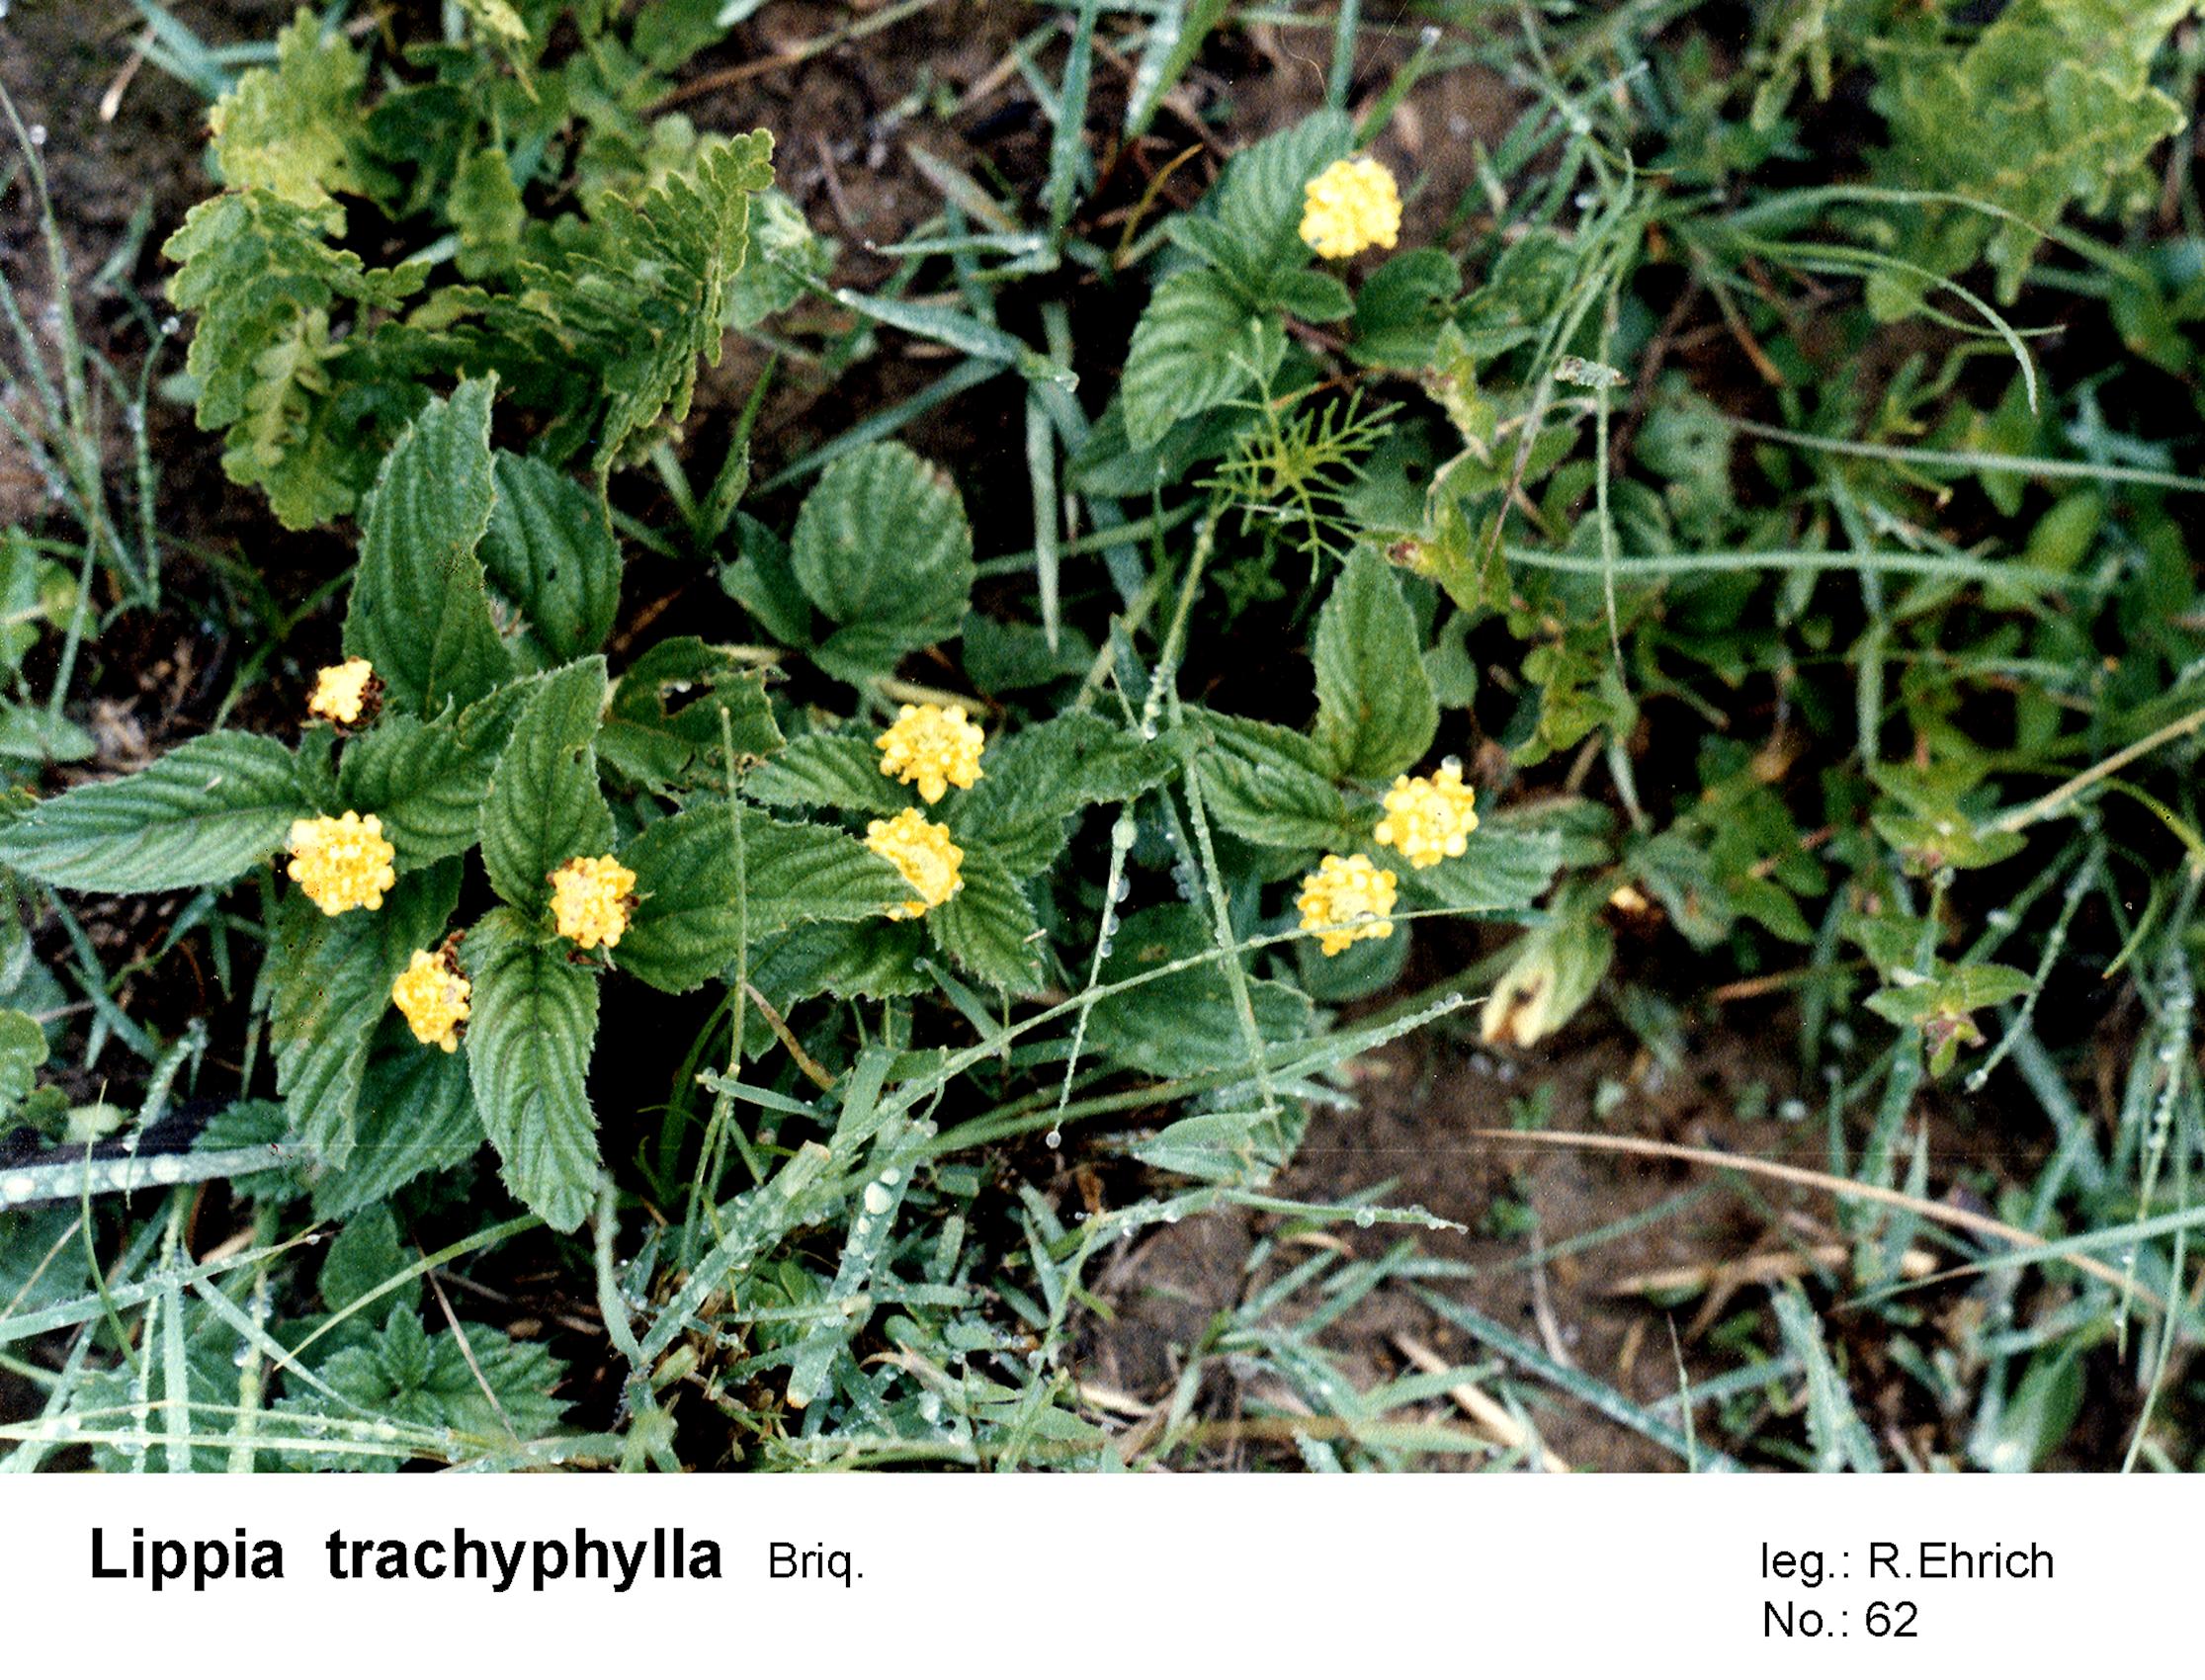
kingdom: Plantae
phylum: Tracheophyta
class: Magnoliopsida
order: Lamiales
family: Verbenaceae
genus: Lippia
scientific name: Lippia trachyphylla
